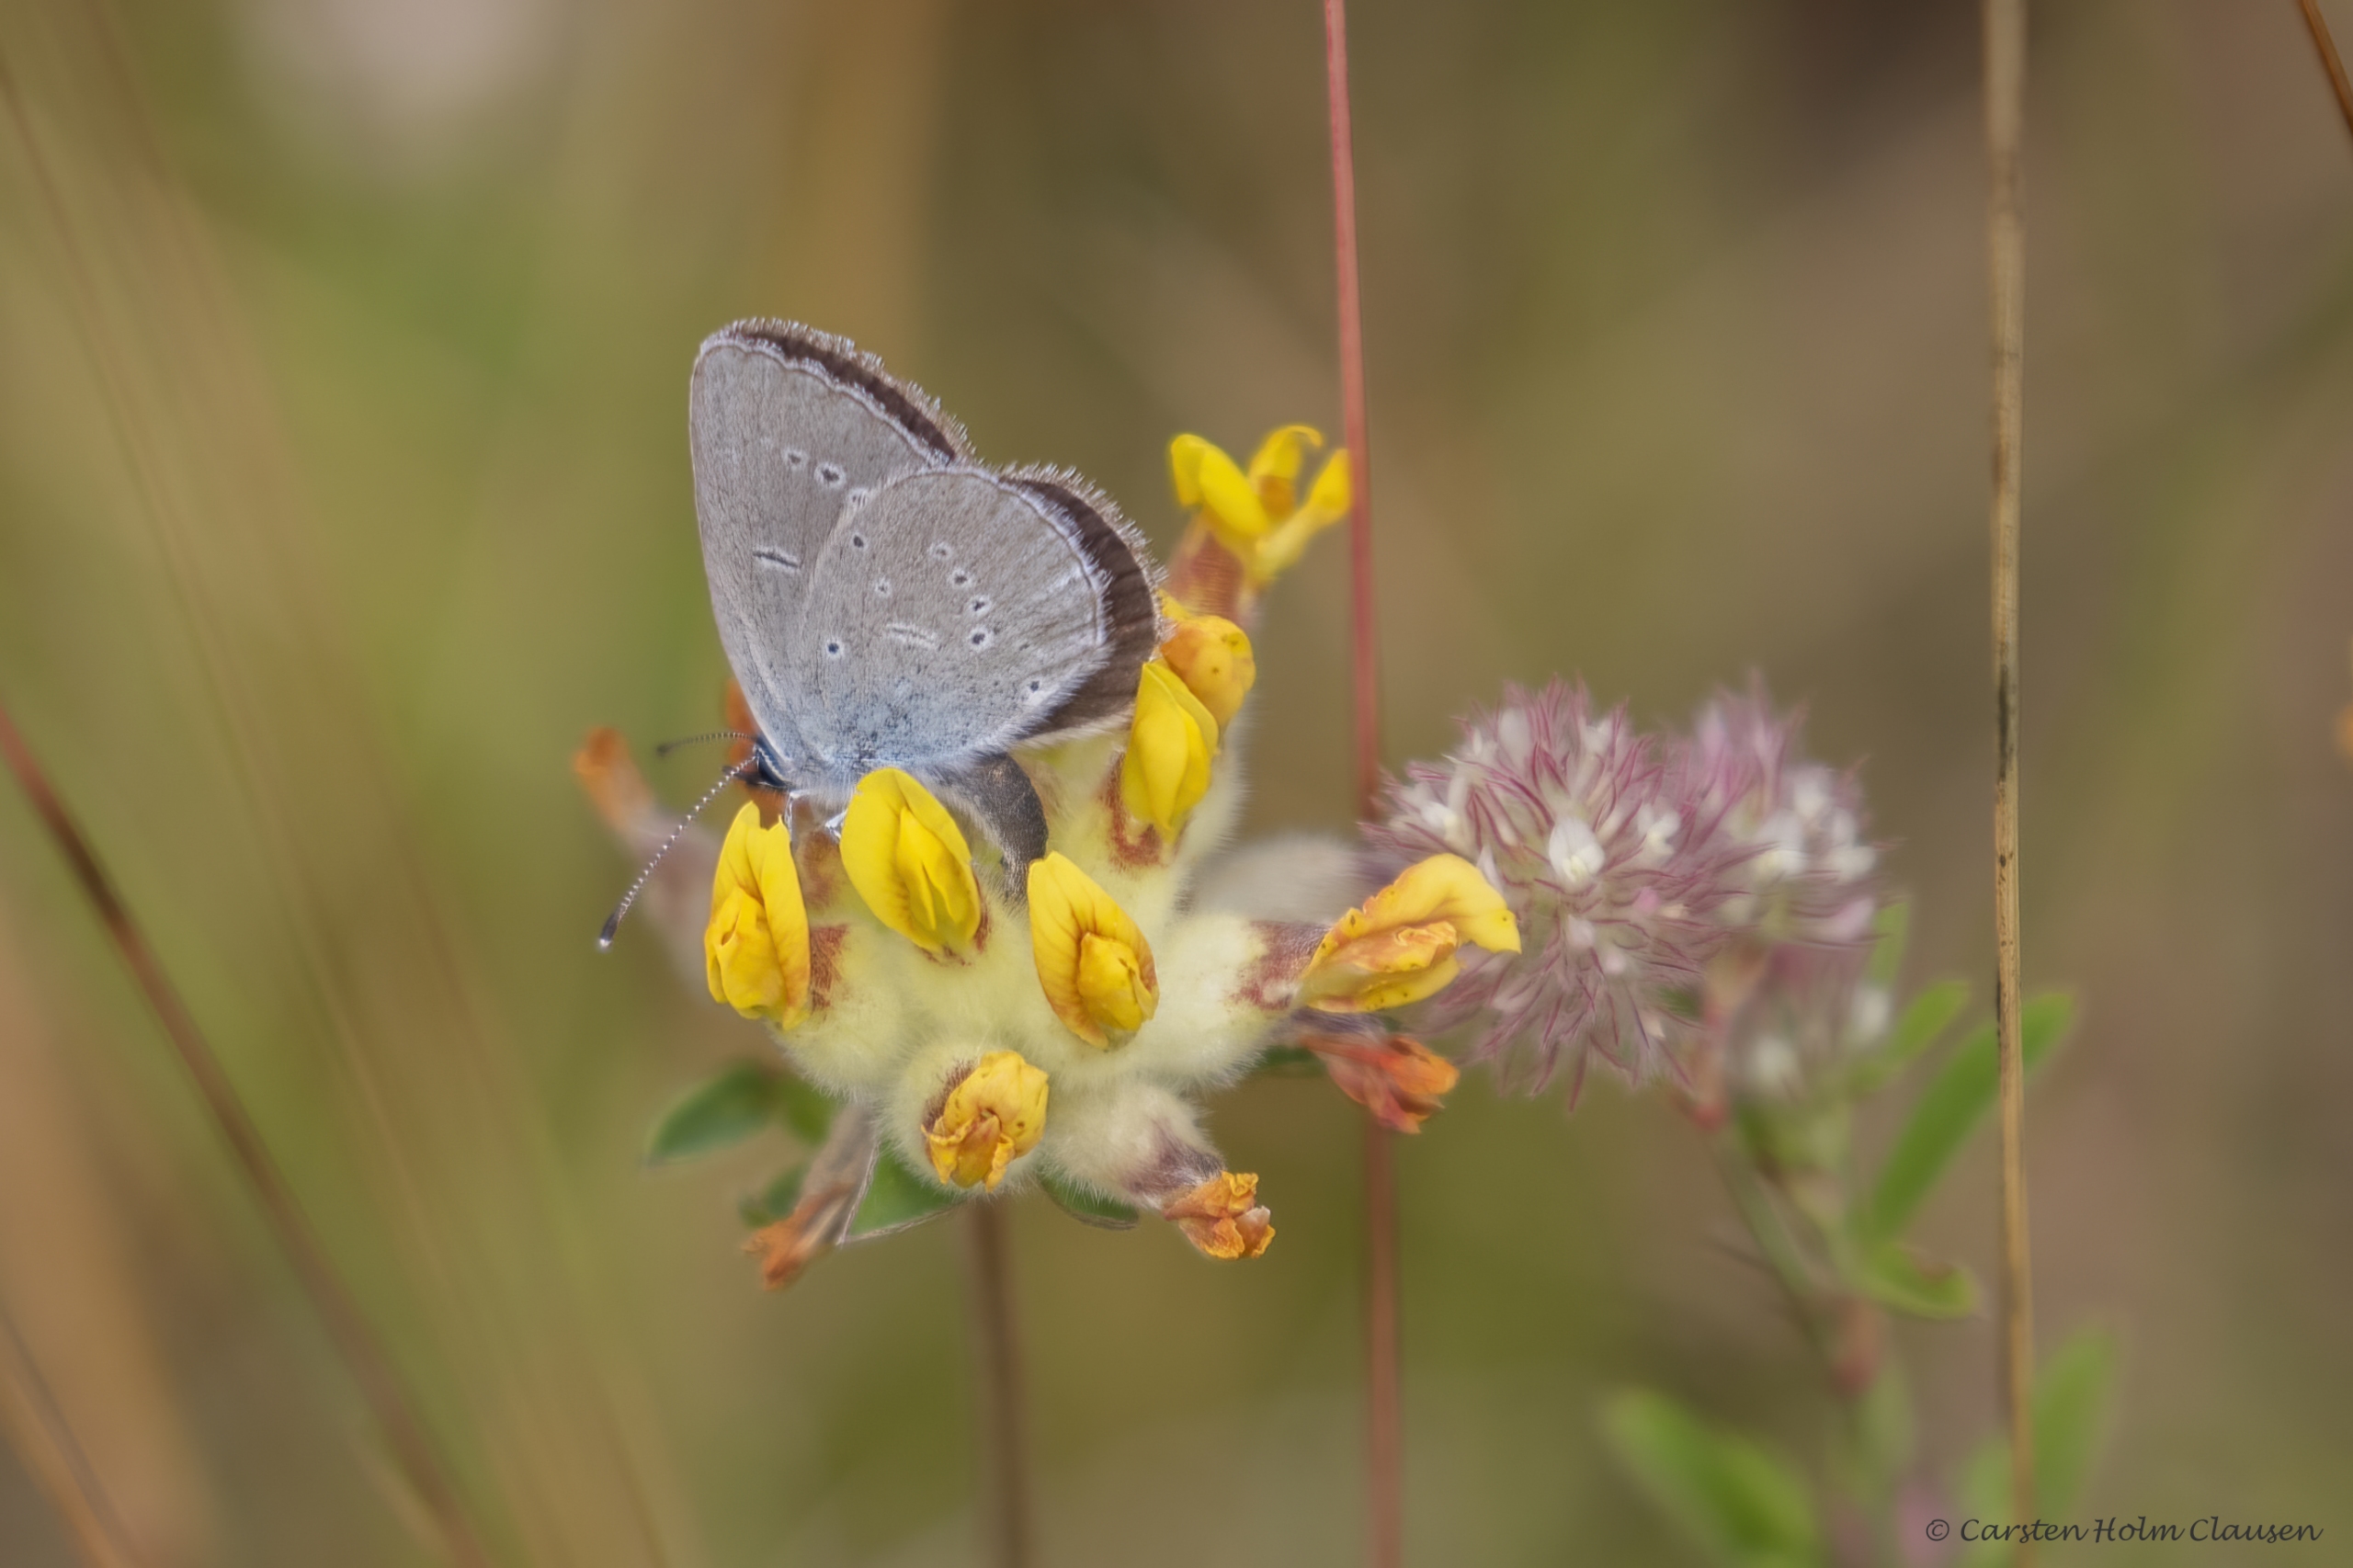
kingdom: Animalia
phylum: Arthropoda
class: Insecta
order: Lepidoptera
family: Lycaenidae
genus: Cupido
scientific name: Cupido minimus
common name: Dværgblåfugl
